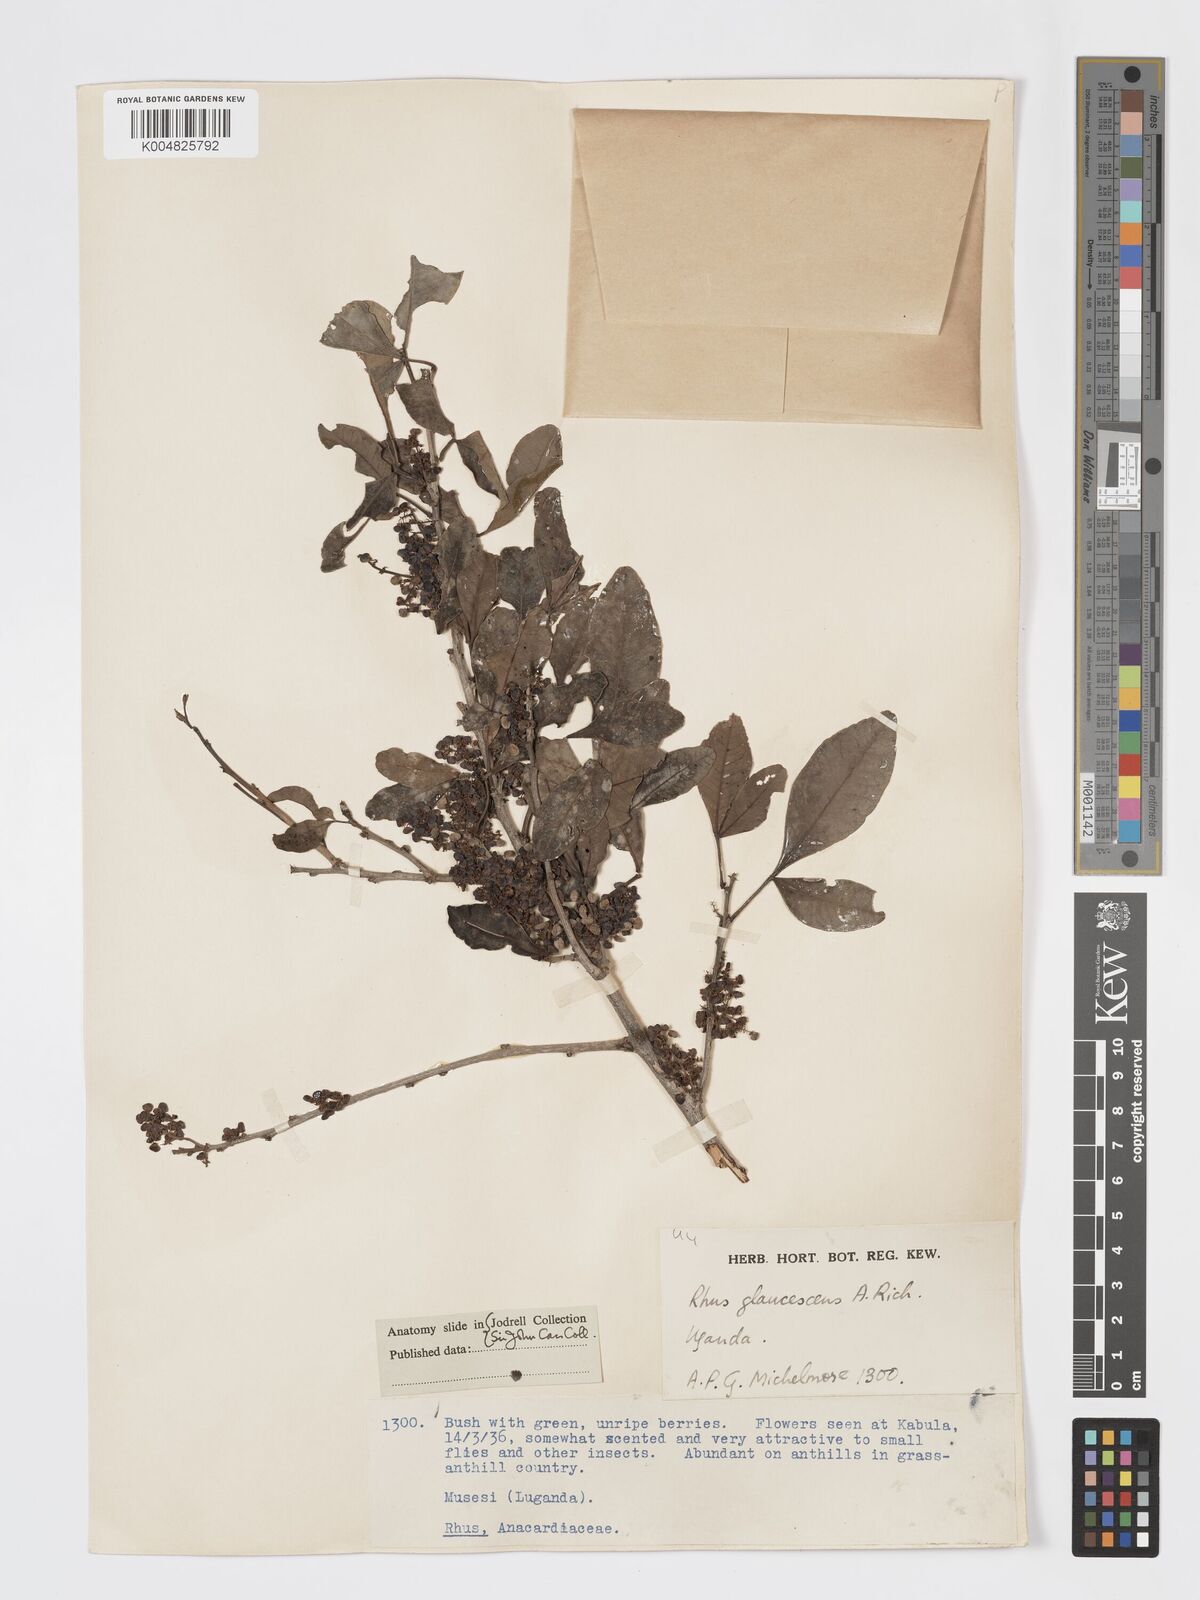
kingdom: Plantae
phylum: Tracheophyta
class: Magnoliopsida
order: Sapindales
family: Anacardiaceae
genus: Searsia
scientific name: Searsia natalensis
